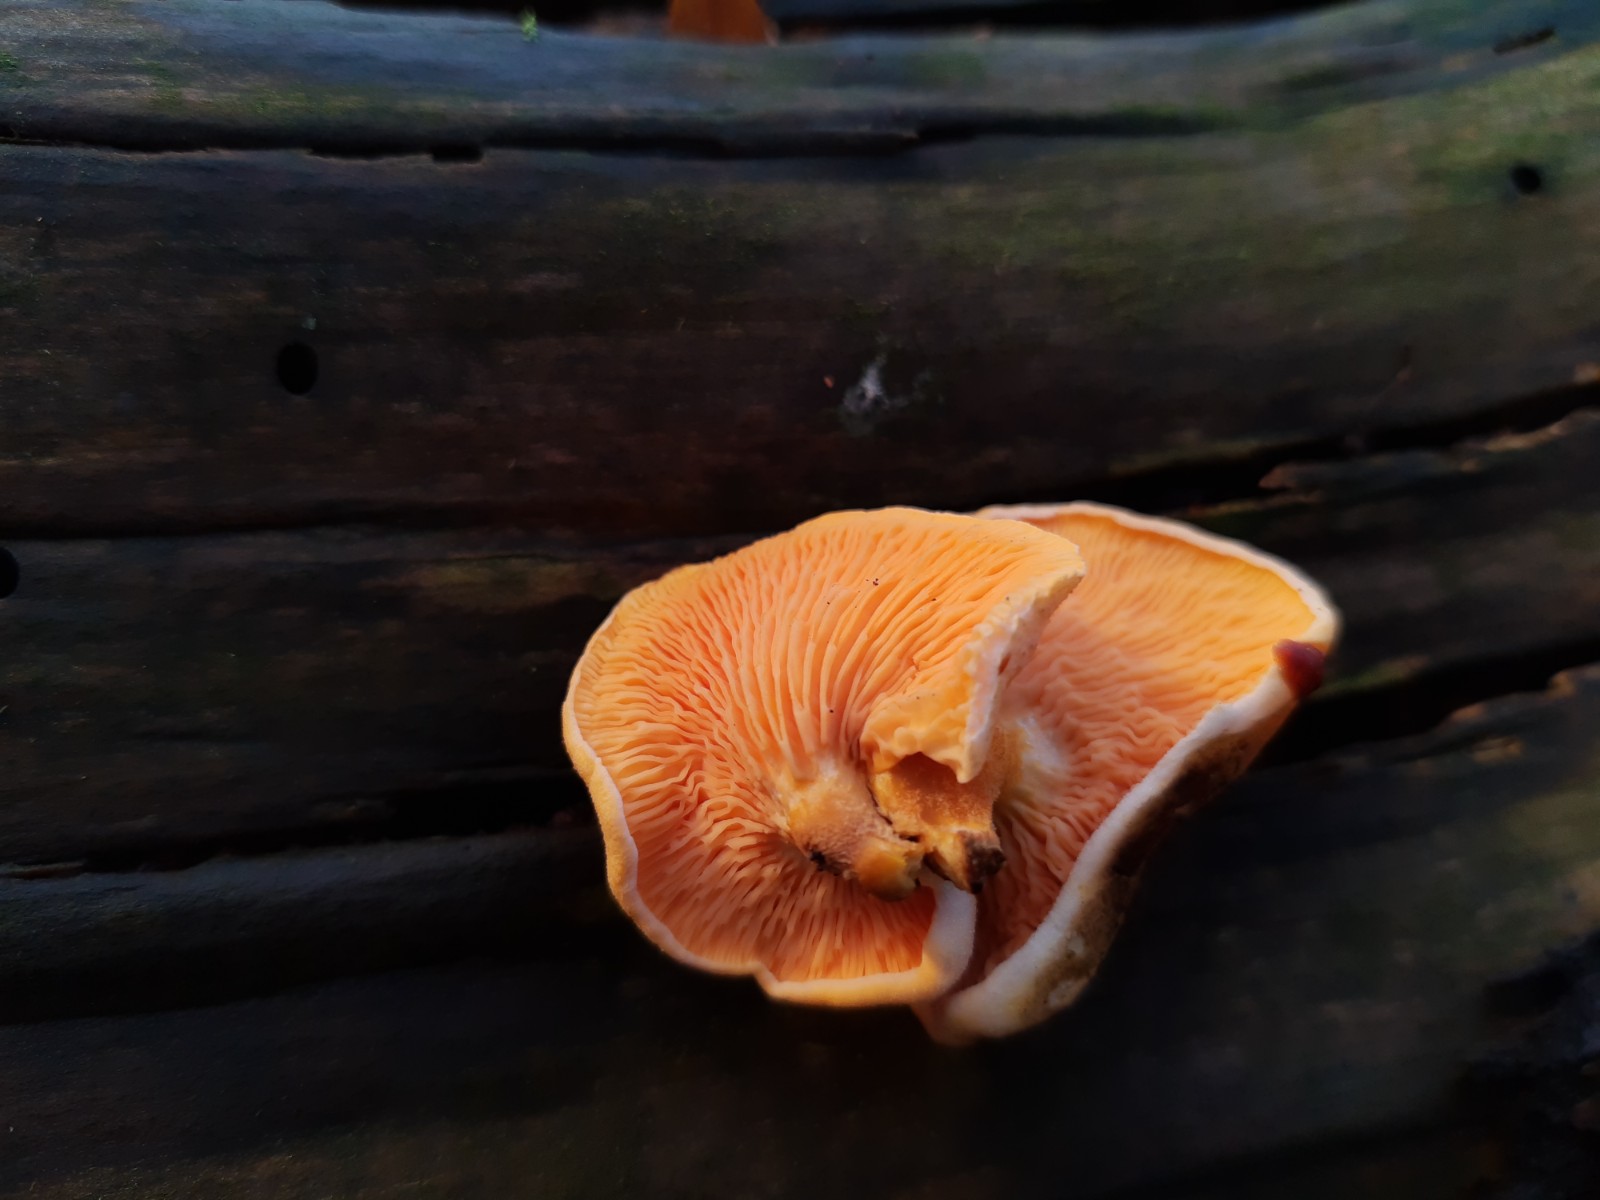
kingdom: Fungi
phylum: Basidiomycota
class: Agaricomycetes
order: Boletales
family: Hygrophoropsidaceae
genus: Hygrophoropsis
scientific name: Hygrophoropsis aurantiaca
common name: almindelig orangekantarel
